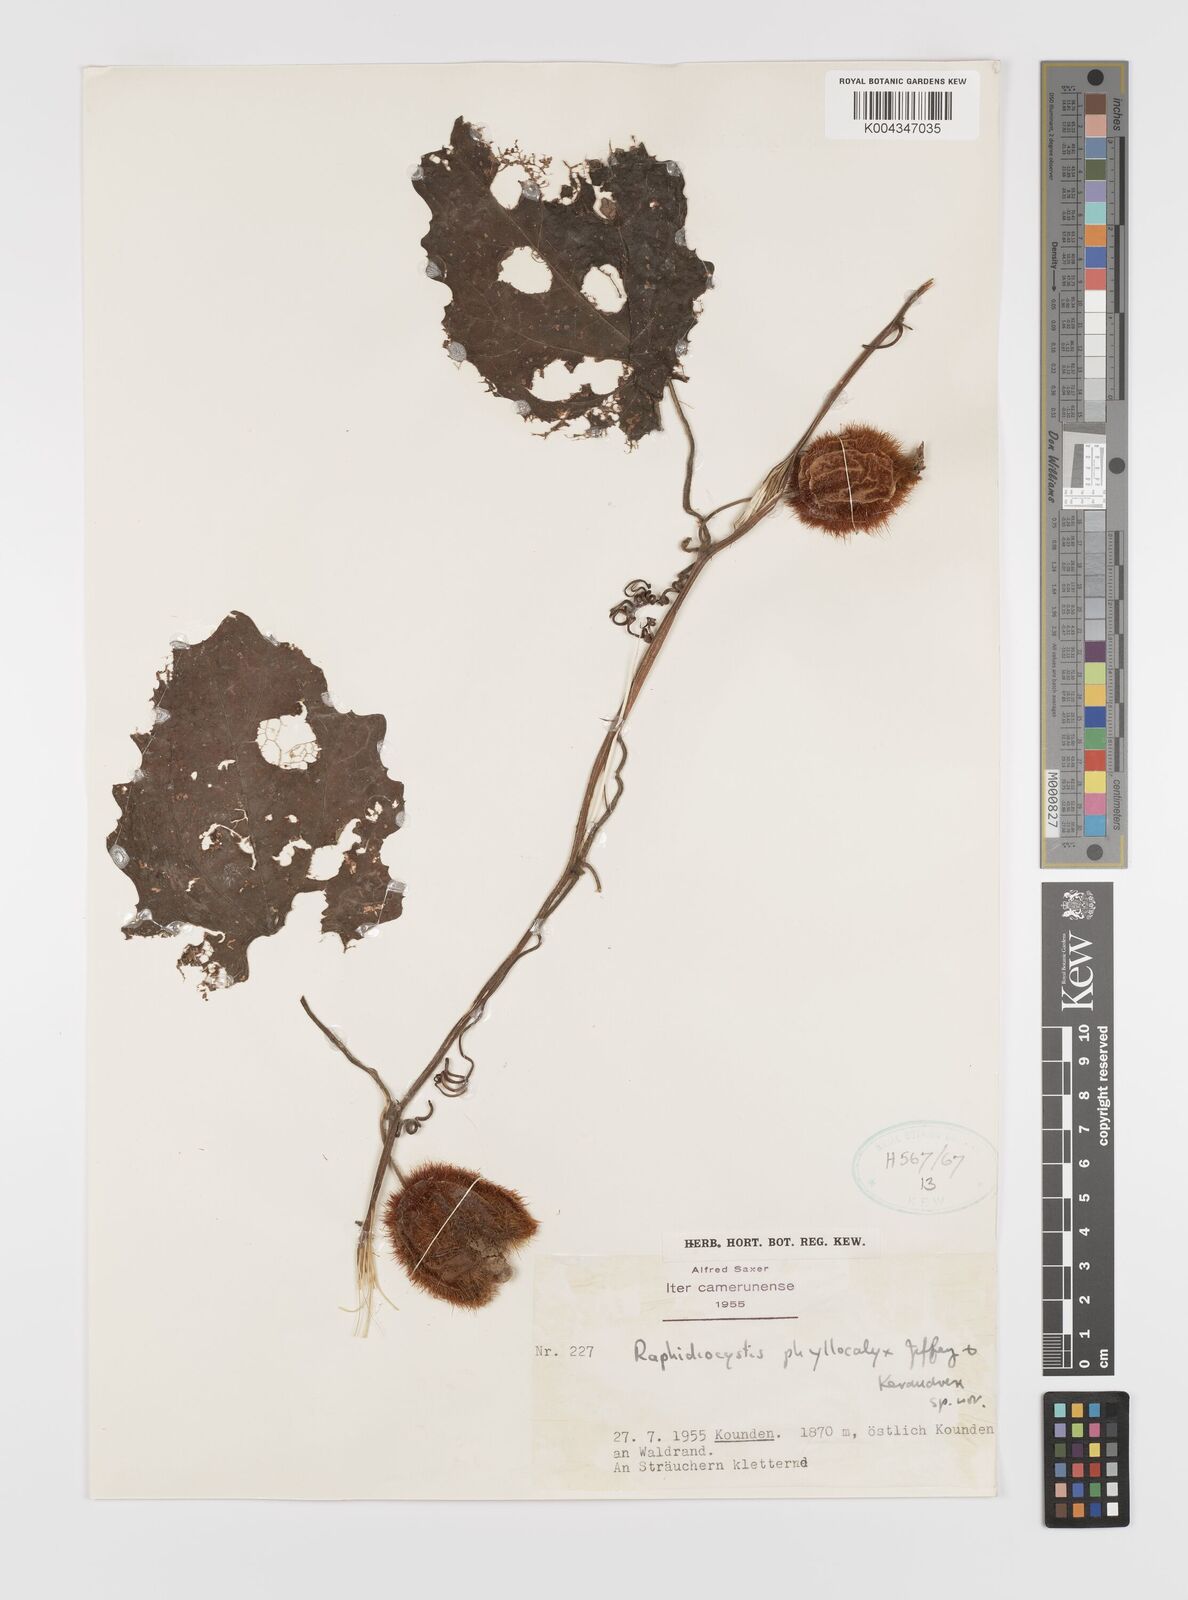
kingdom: Plantae
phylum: Tracheophyta
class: Magnoliopsida
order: Cucurbitales
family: Cucurbitaceae
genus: Raphidiocystis
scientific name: Raphidiocystis phyllocalyx
